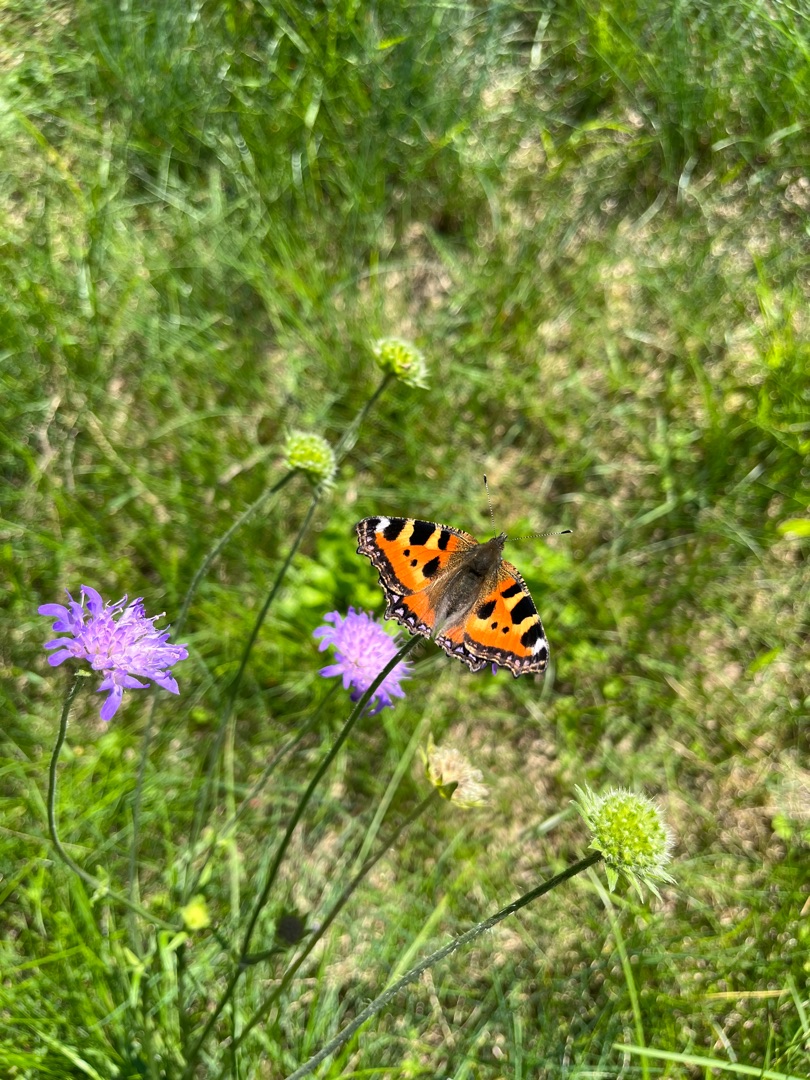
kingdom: Animalia
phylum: Arthropoda
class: Insecta
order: Lepidoptera
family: Nymphalidae
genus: Aglais
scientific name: Aglais urticae
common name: Nældens takvinge
